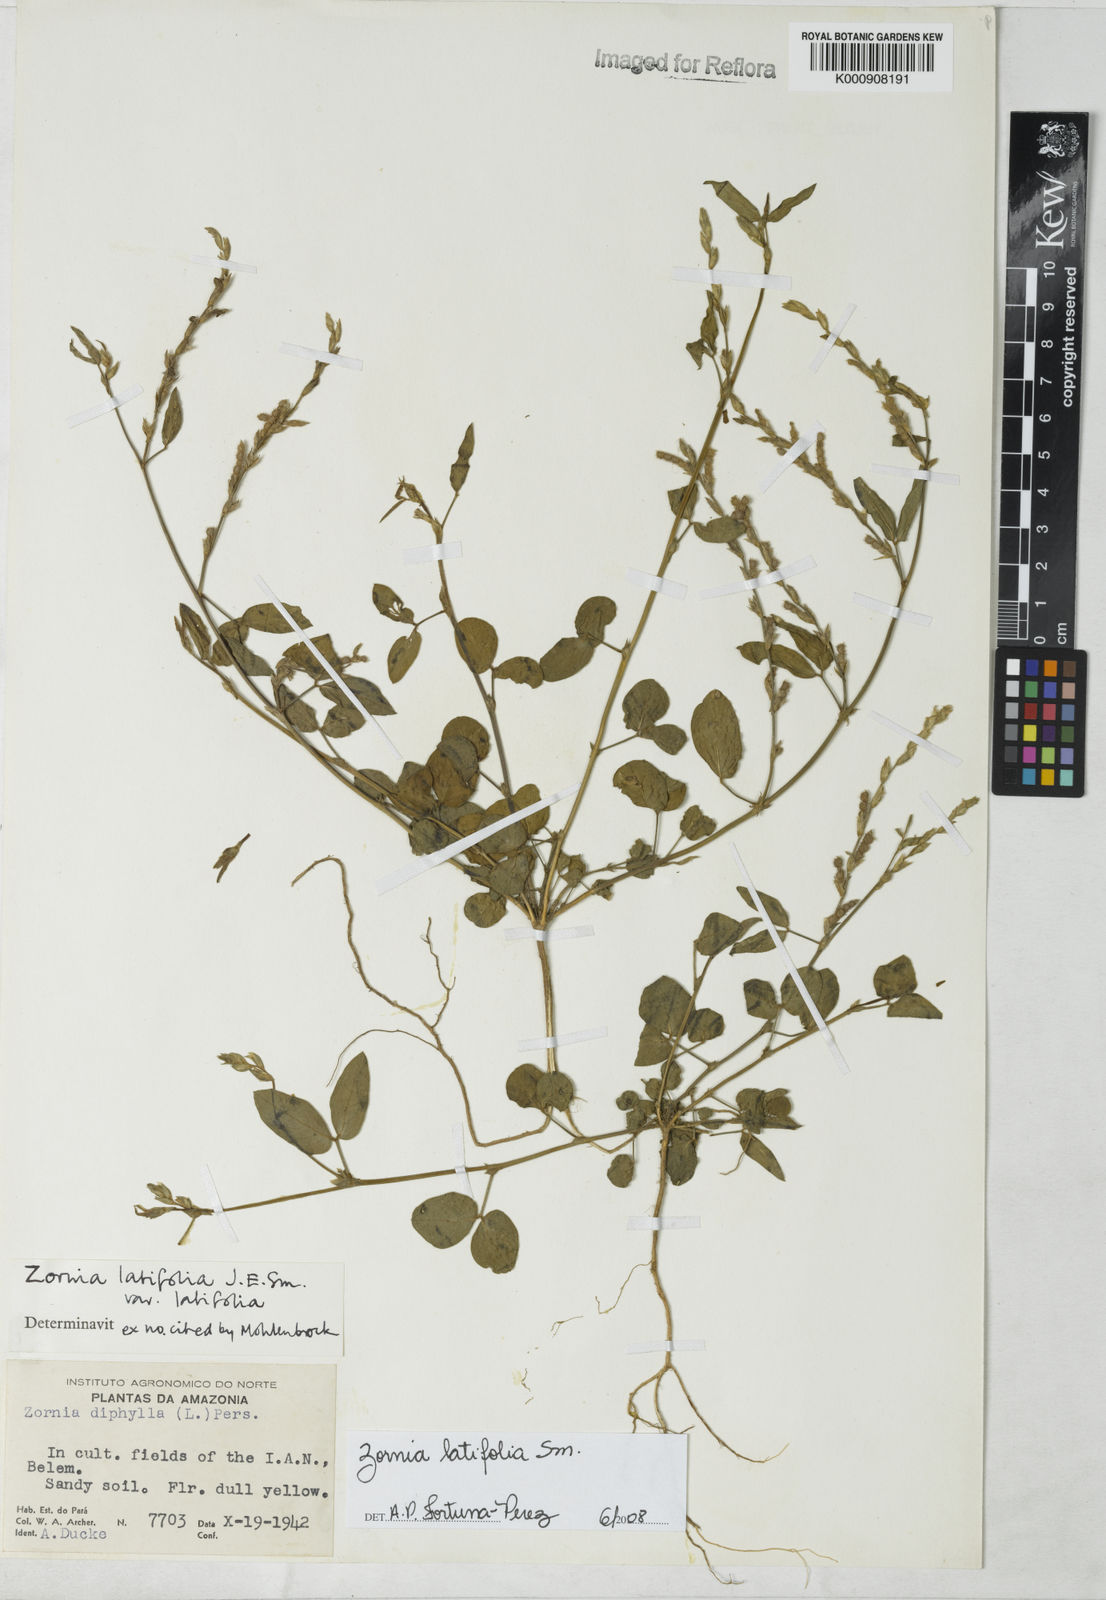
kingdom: Plantae
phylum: Tracheophyta
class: Magnoliopsida
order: Fabales
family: Fabaceae
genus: Zornia
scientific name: Zornia latifolia
